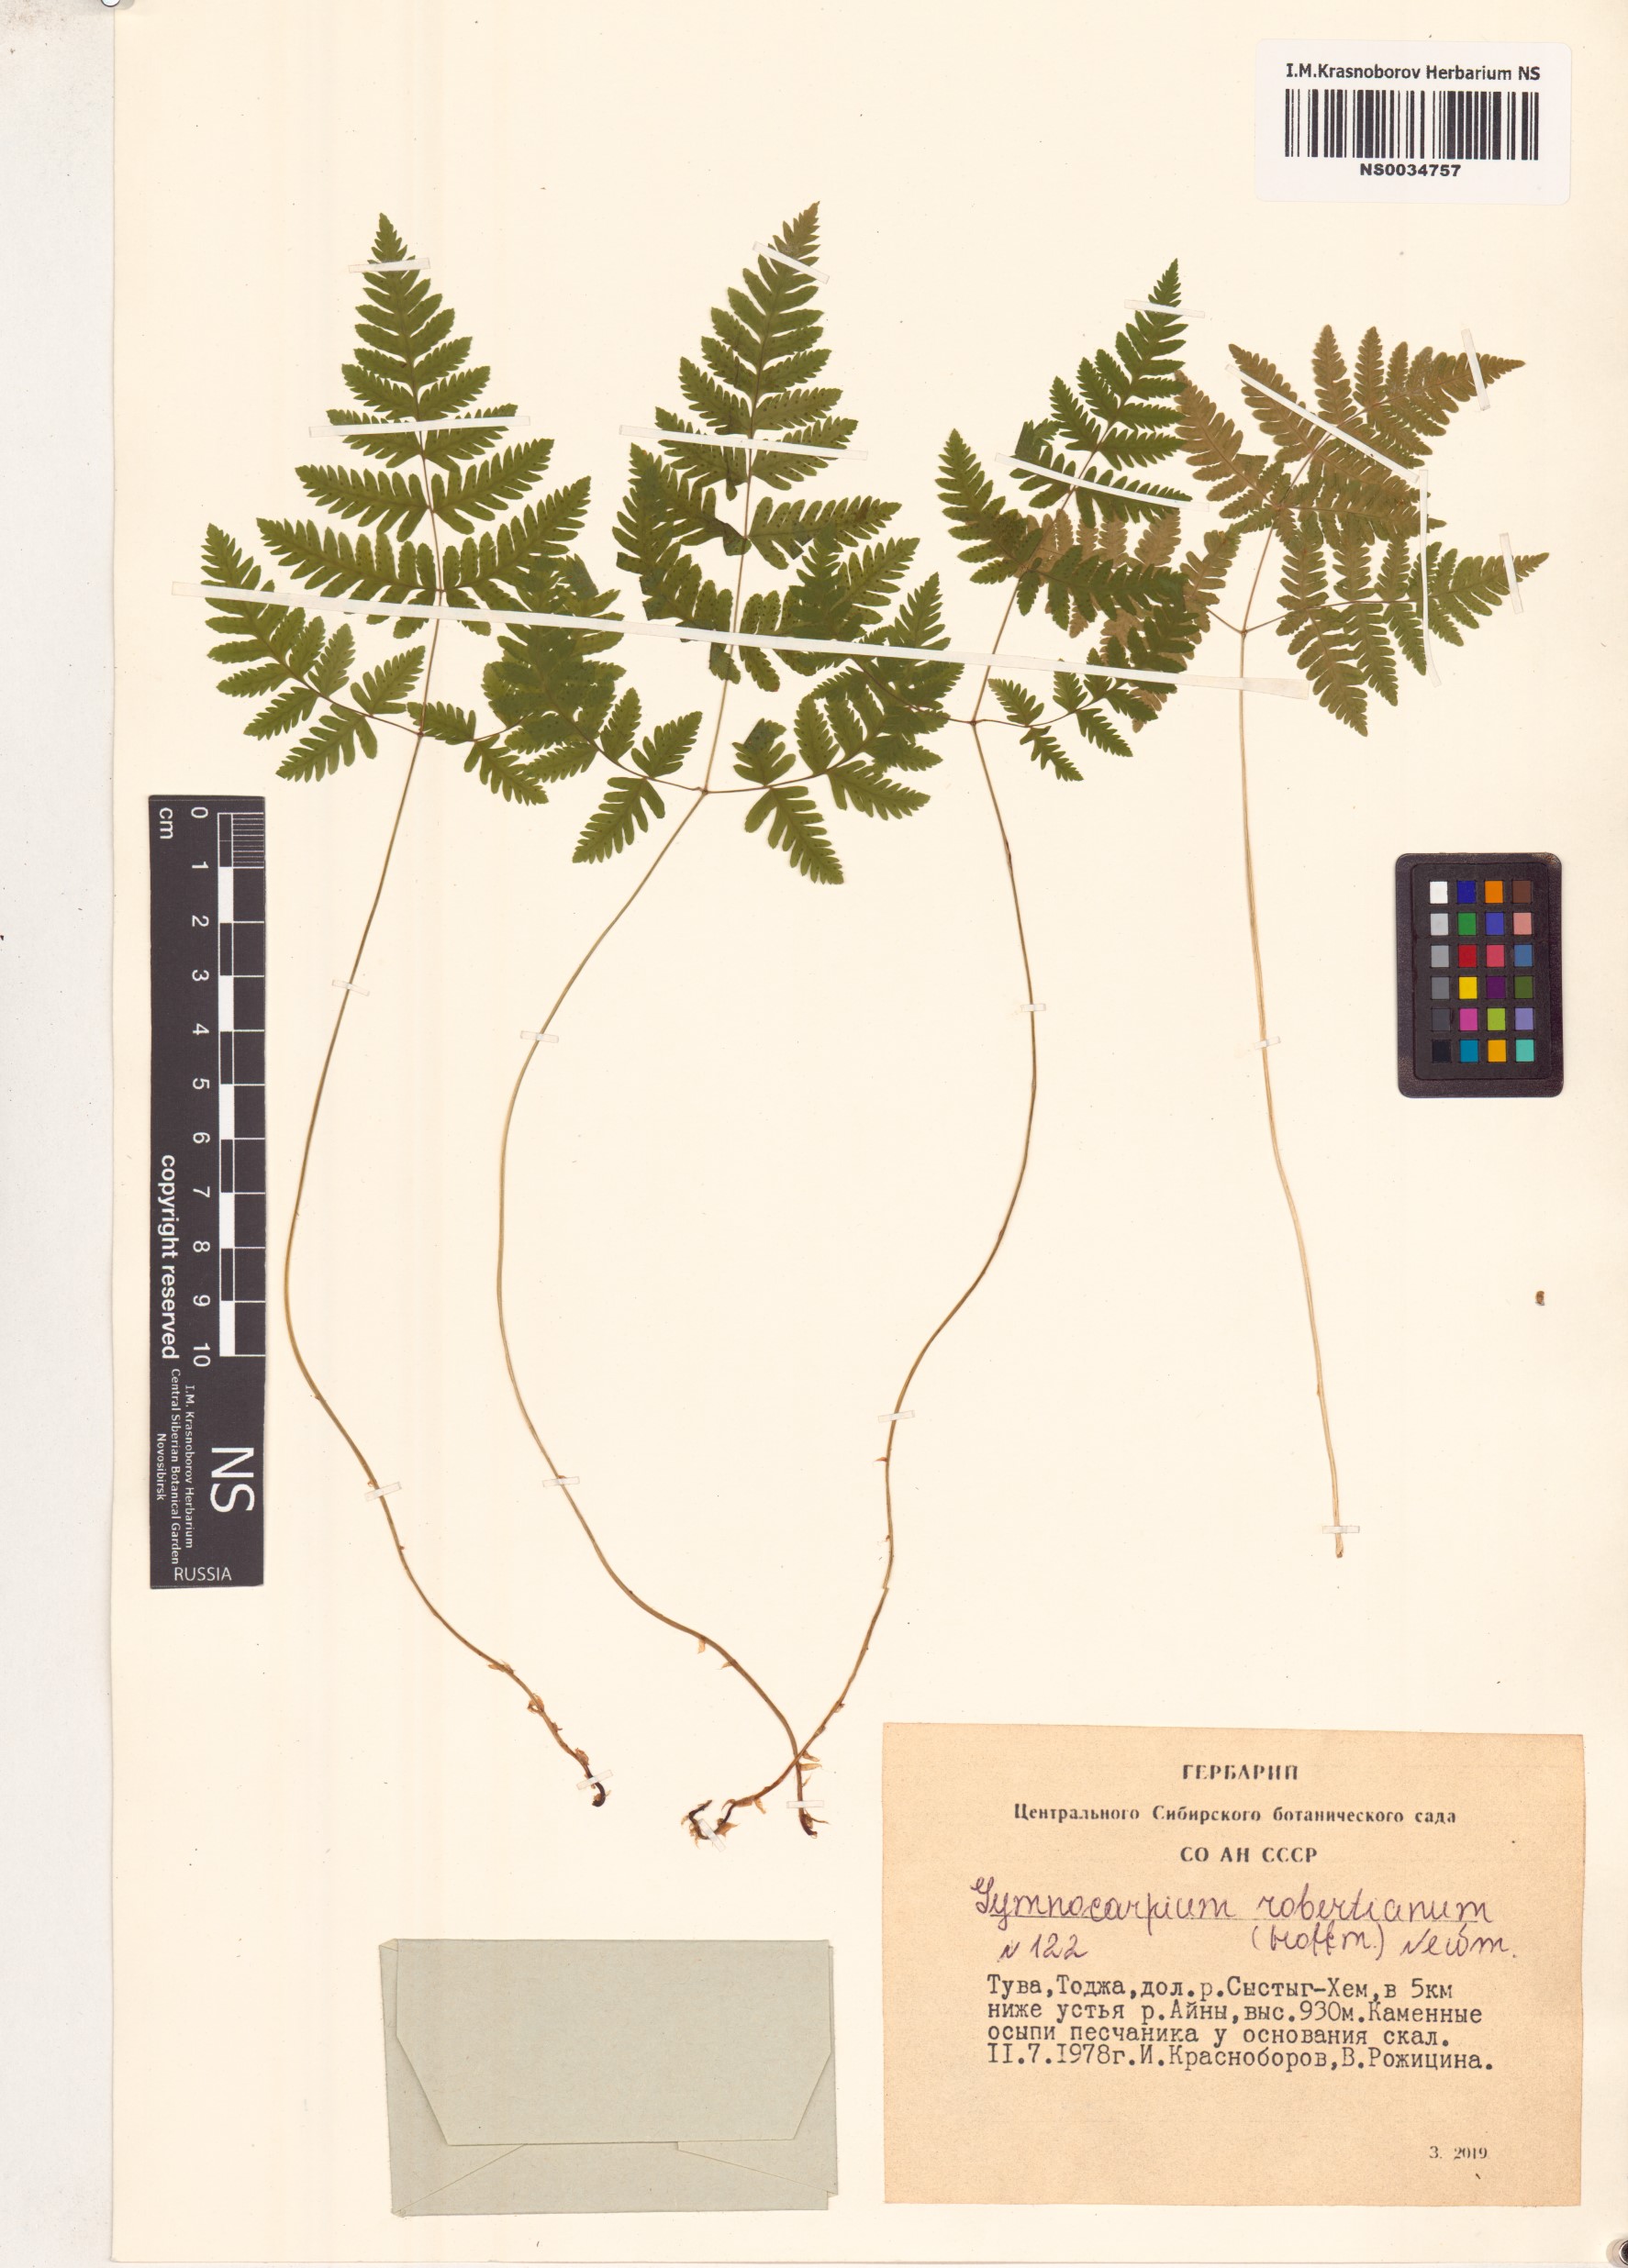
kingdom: Plantae
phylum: Tracheophyta
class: Polypodiopsida
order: Polypodiales
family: Cystopteridaceae
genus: Gymnocarpium
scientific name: Gymnocarpium robertianum
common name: Limestone fern
